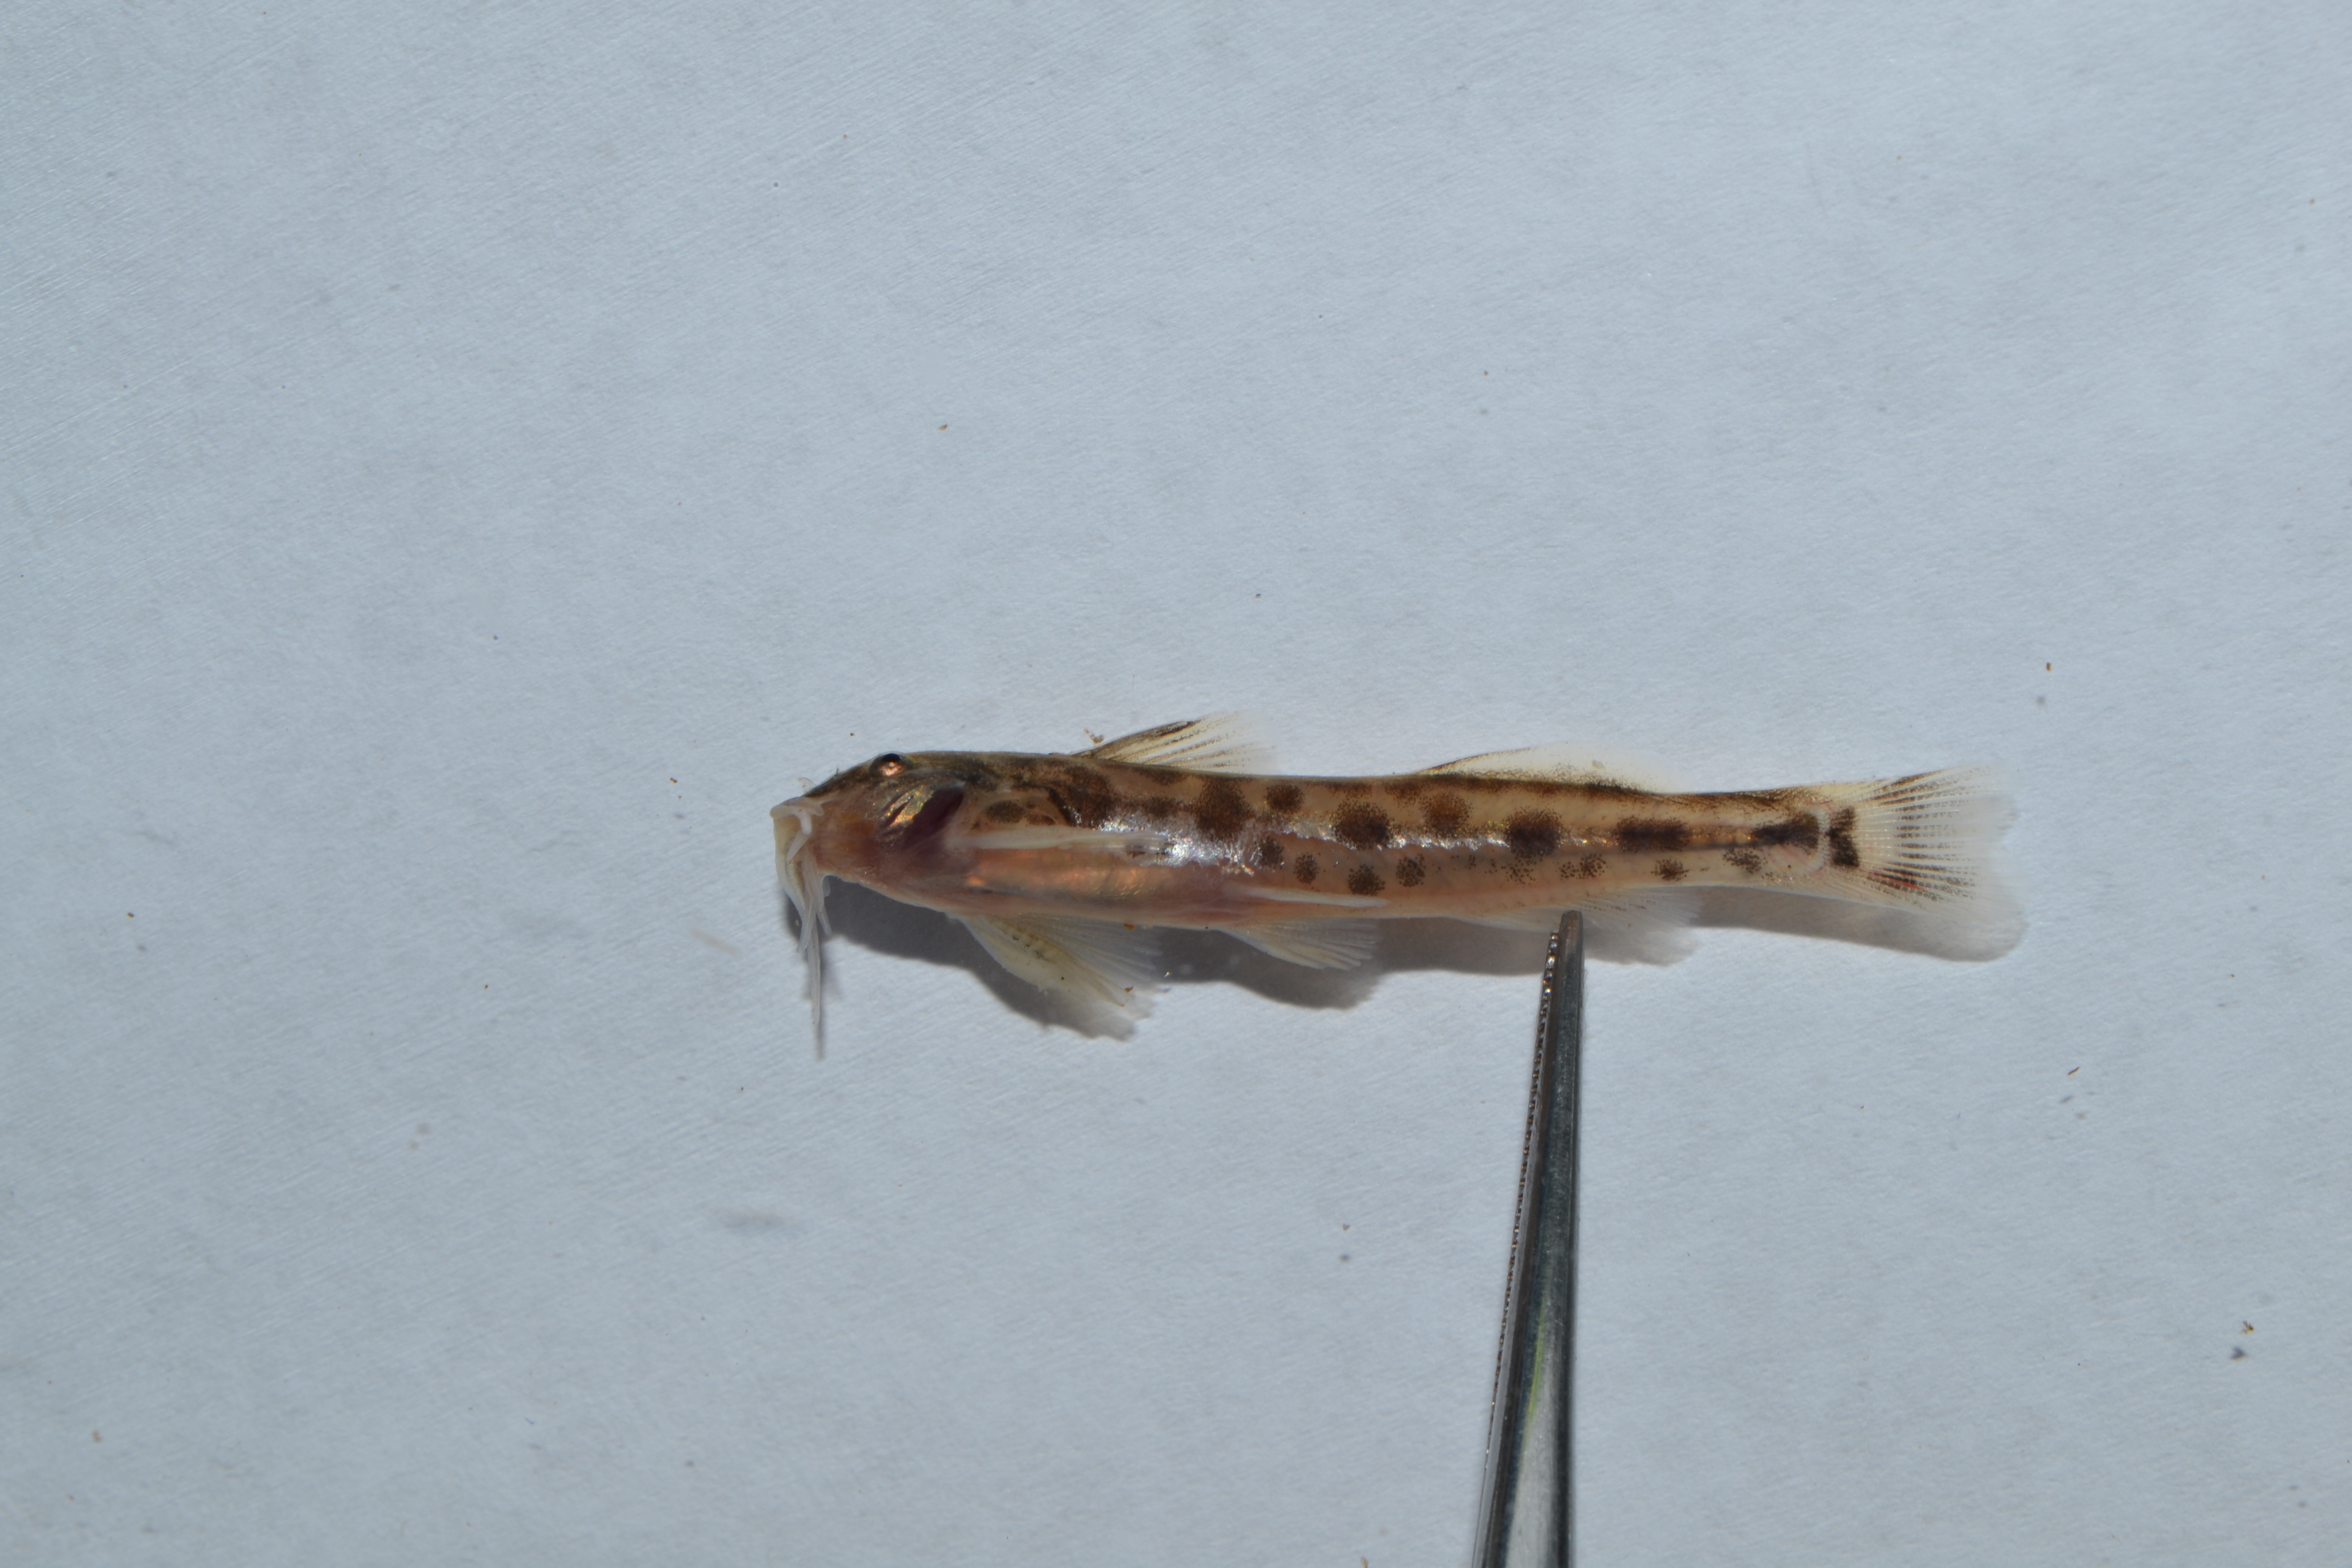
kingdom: Animalia
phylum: Chordata
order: Siluriformes
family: Amphiliidae
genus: Zaireichthys
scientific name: Zaireichthys
